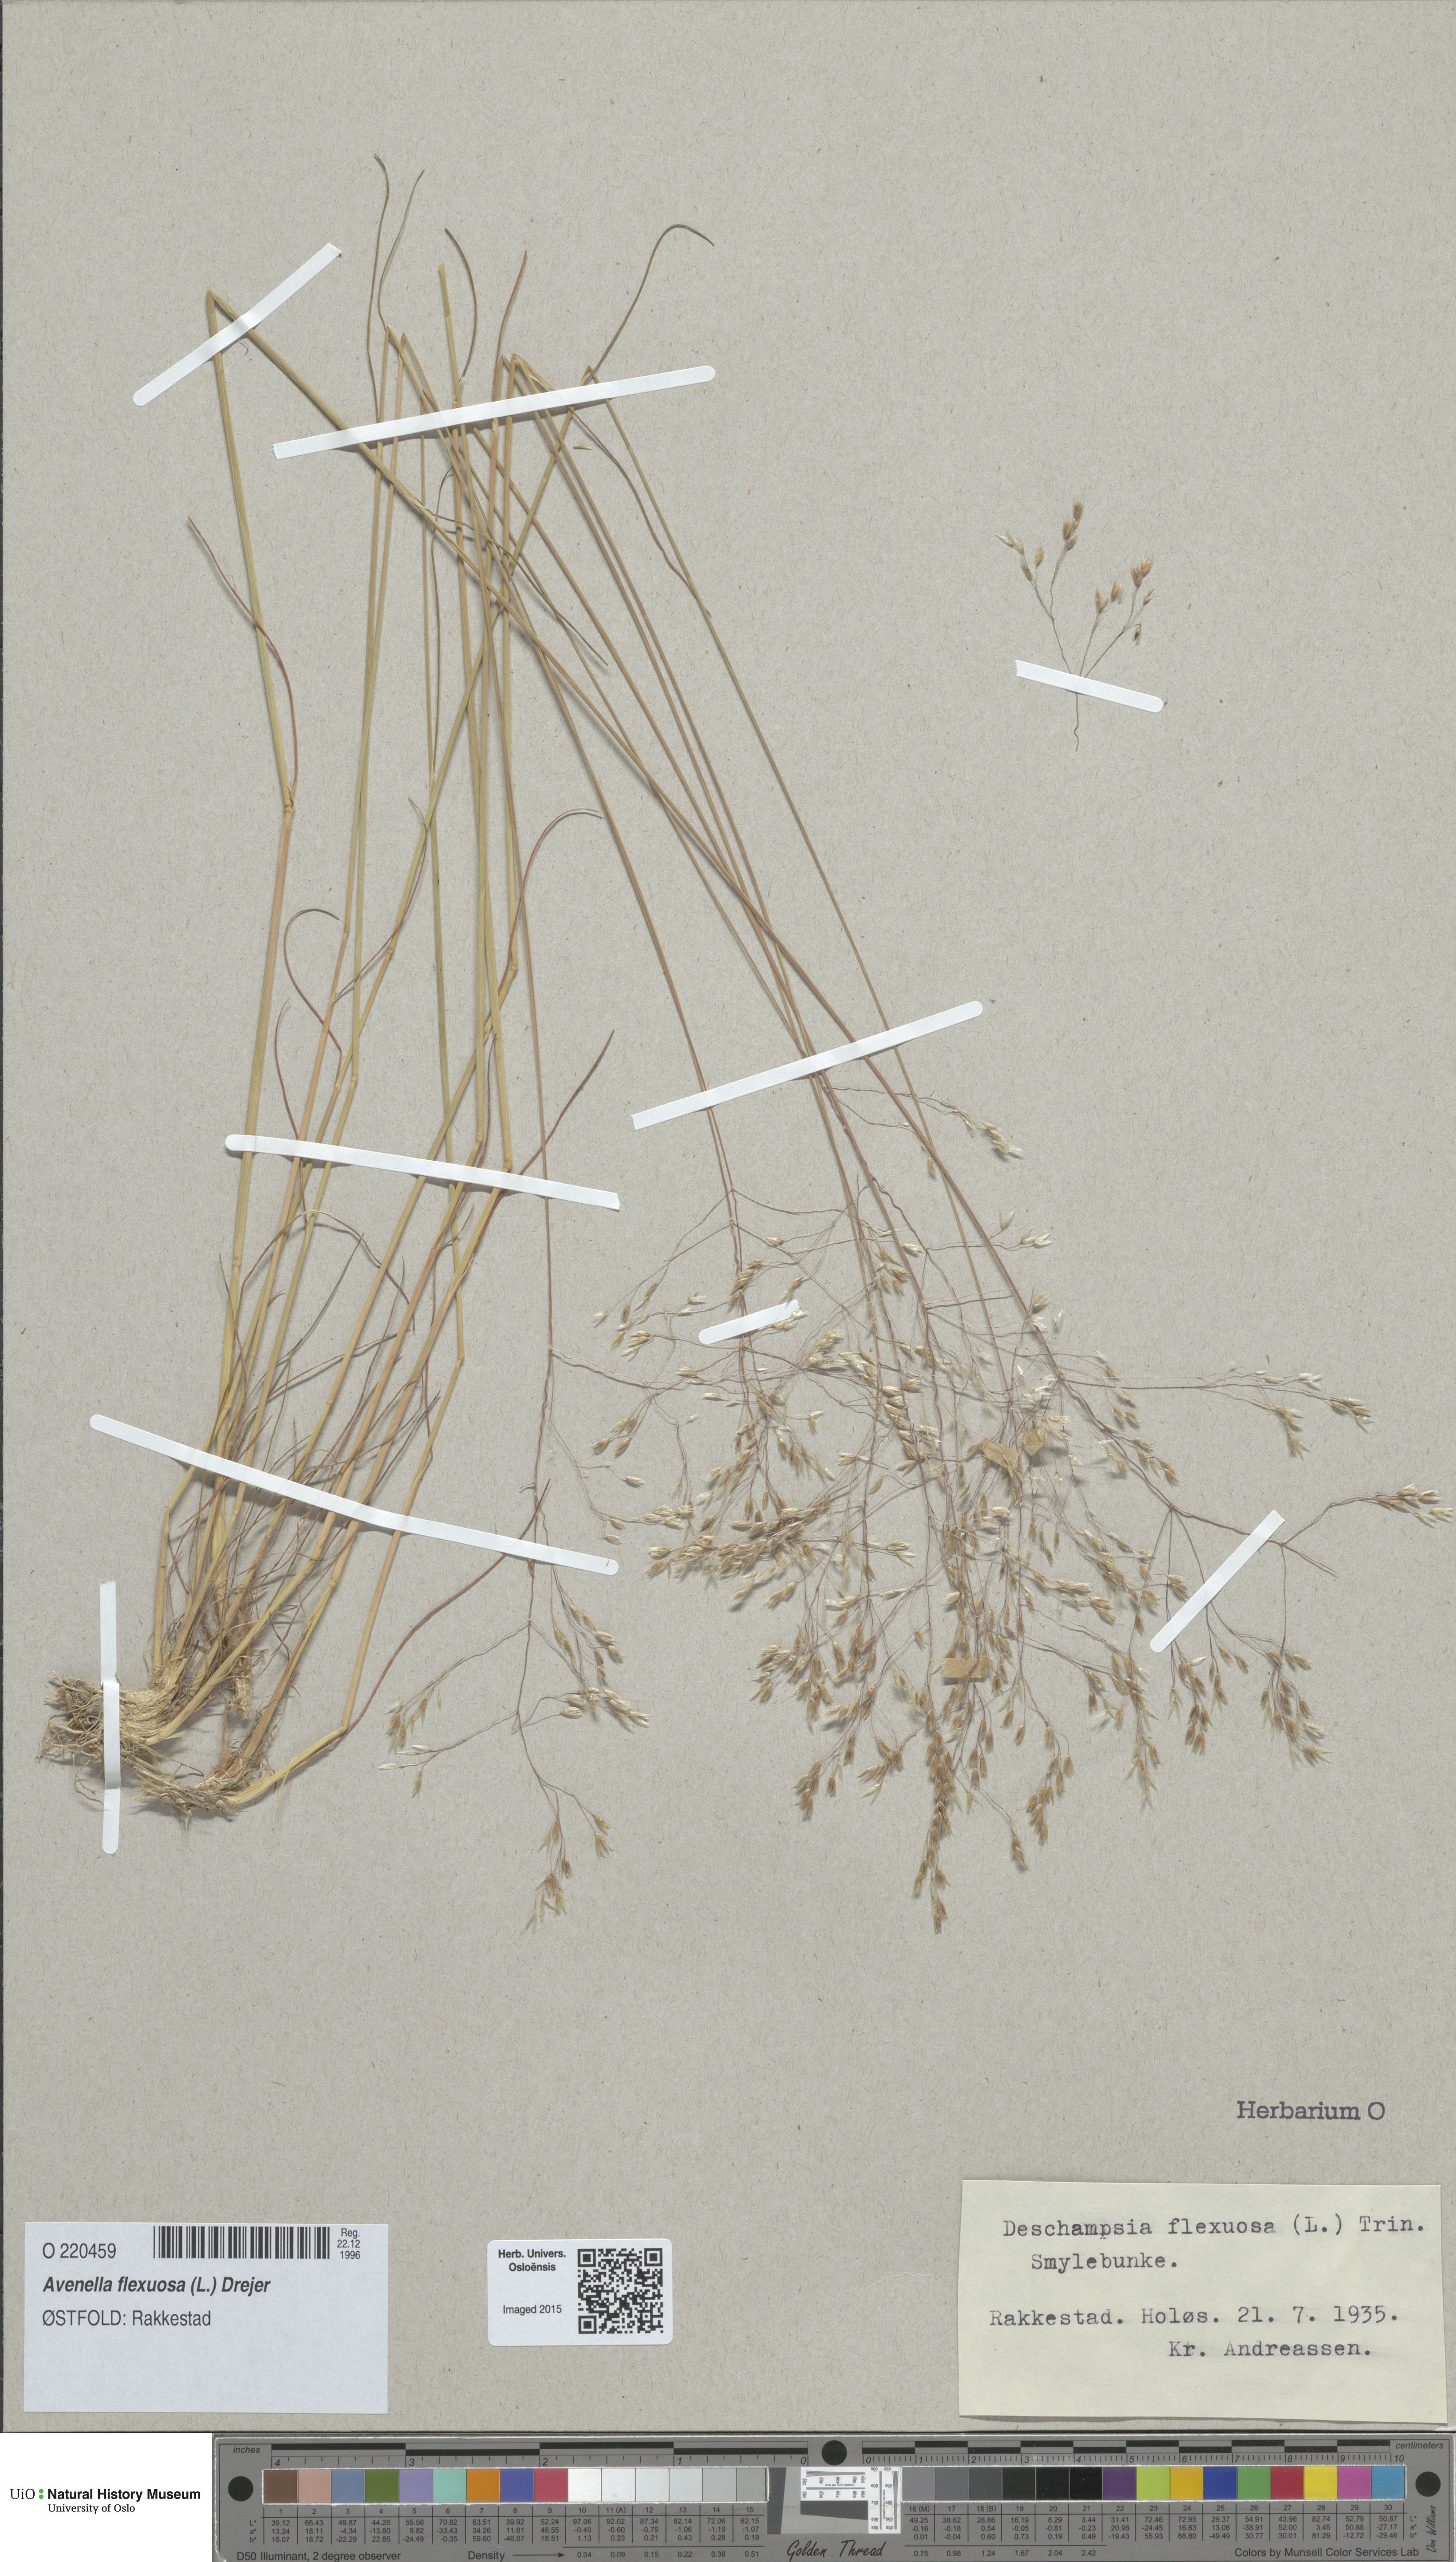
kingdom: Plantae
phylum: Tracheophyta
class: Liliopsida
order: Poales
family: Poaceae
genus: Avenella
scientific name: Avenella flexuosa
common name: Wavy hairgrass
